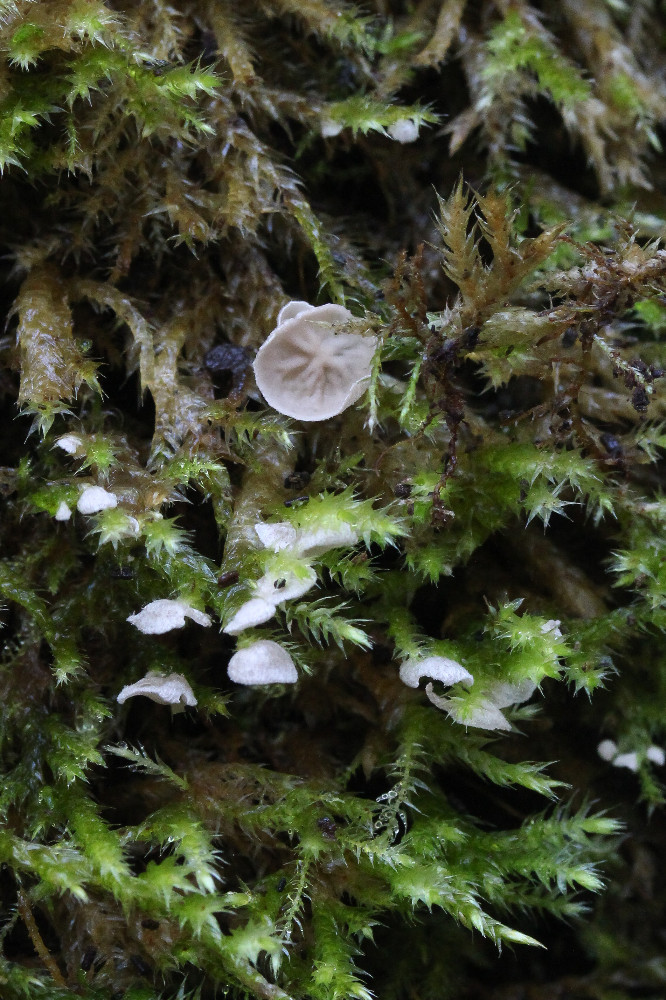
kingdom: Fungi
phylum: Basidiomycota
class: Agaricomycetes
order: Agaricales
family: Hygrophoraceae
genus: Arrhenia
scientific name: Arrhenia retiruga
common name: lille fontænehat
